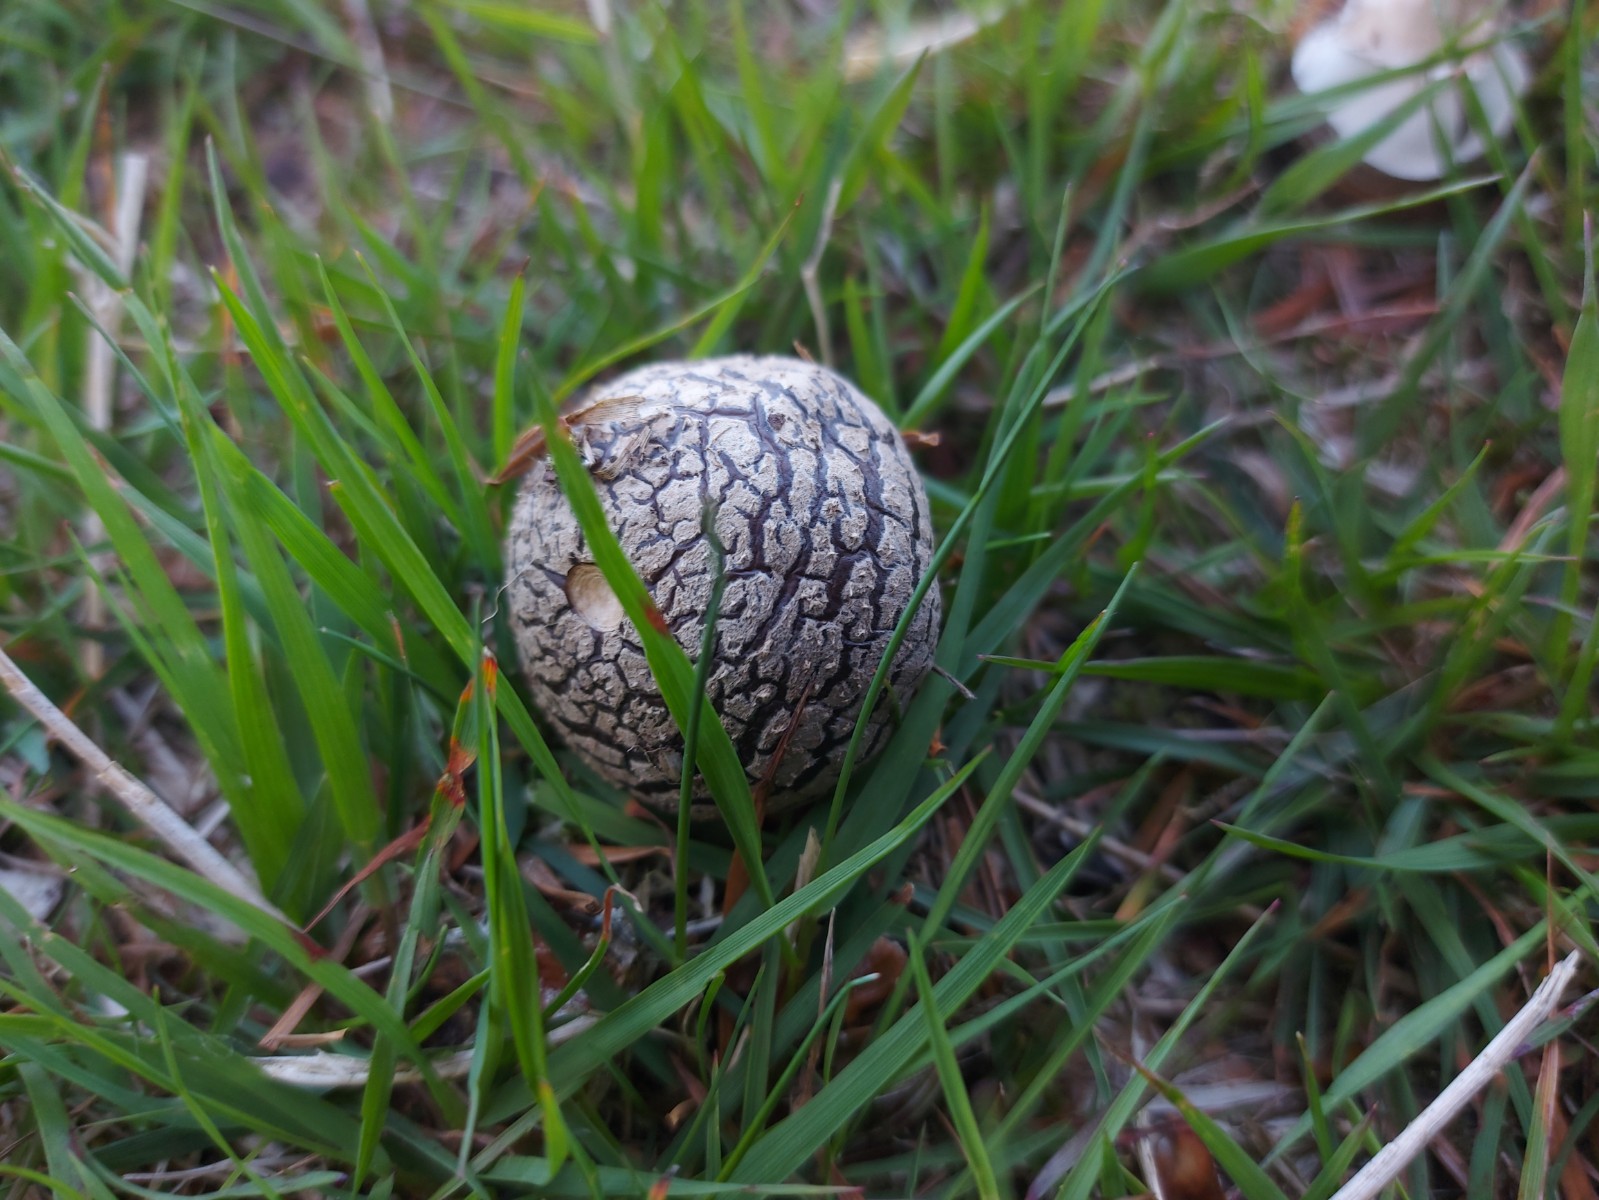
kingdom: Fungi
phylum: Basidiomycota
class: Agaricomycetes
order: Agaricales
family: Amanitaceae
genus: Amanita
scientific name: Amanita
